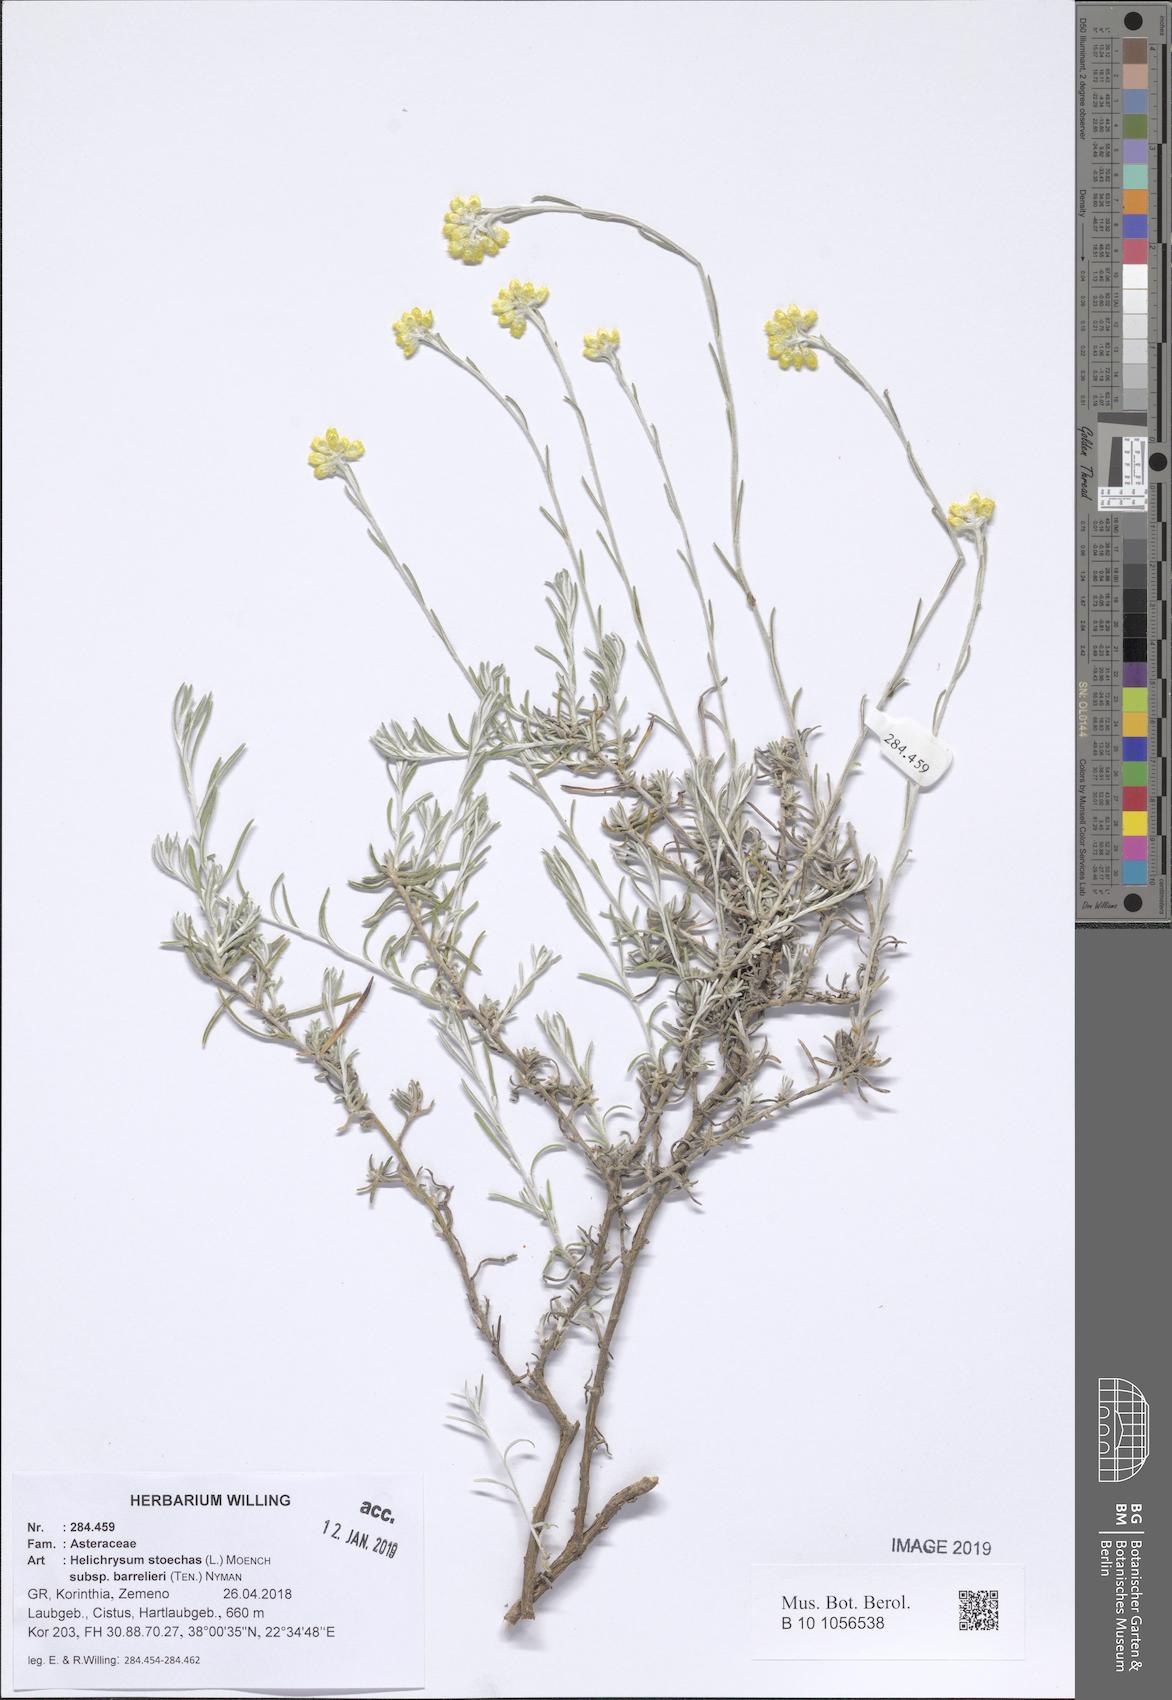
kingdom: Plantae
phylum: Tracheophyta
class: Magnoliopsida
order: Asterales
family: Asteraceae
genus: Helichrysum
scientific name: Helichrysum stoechas
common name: Goldilocks
